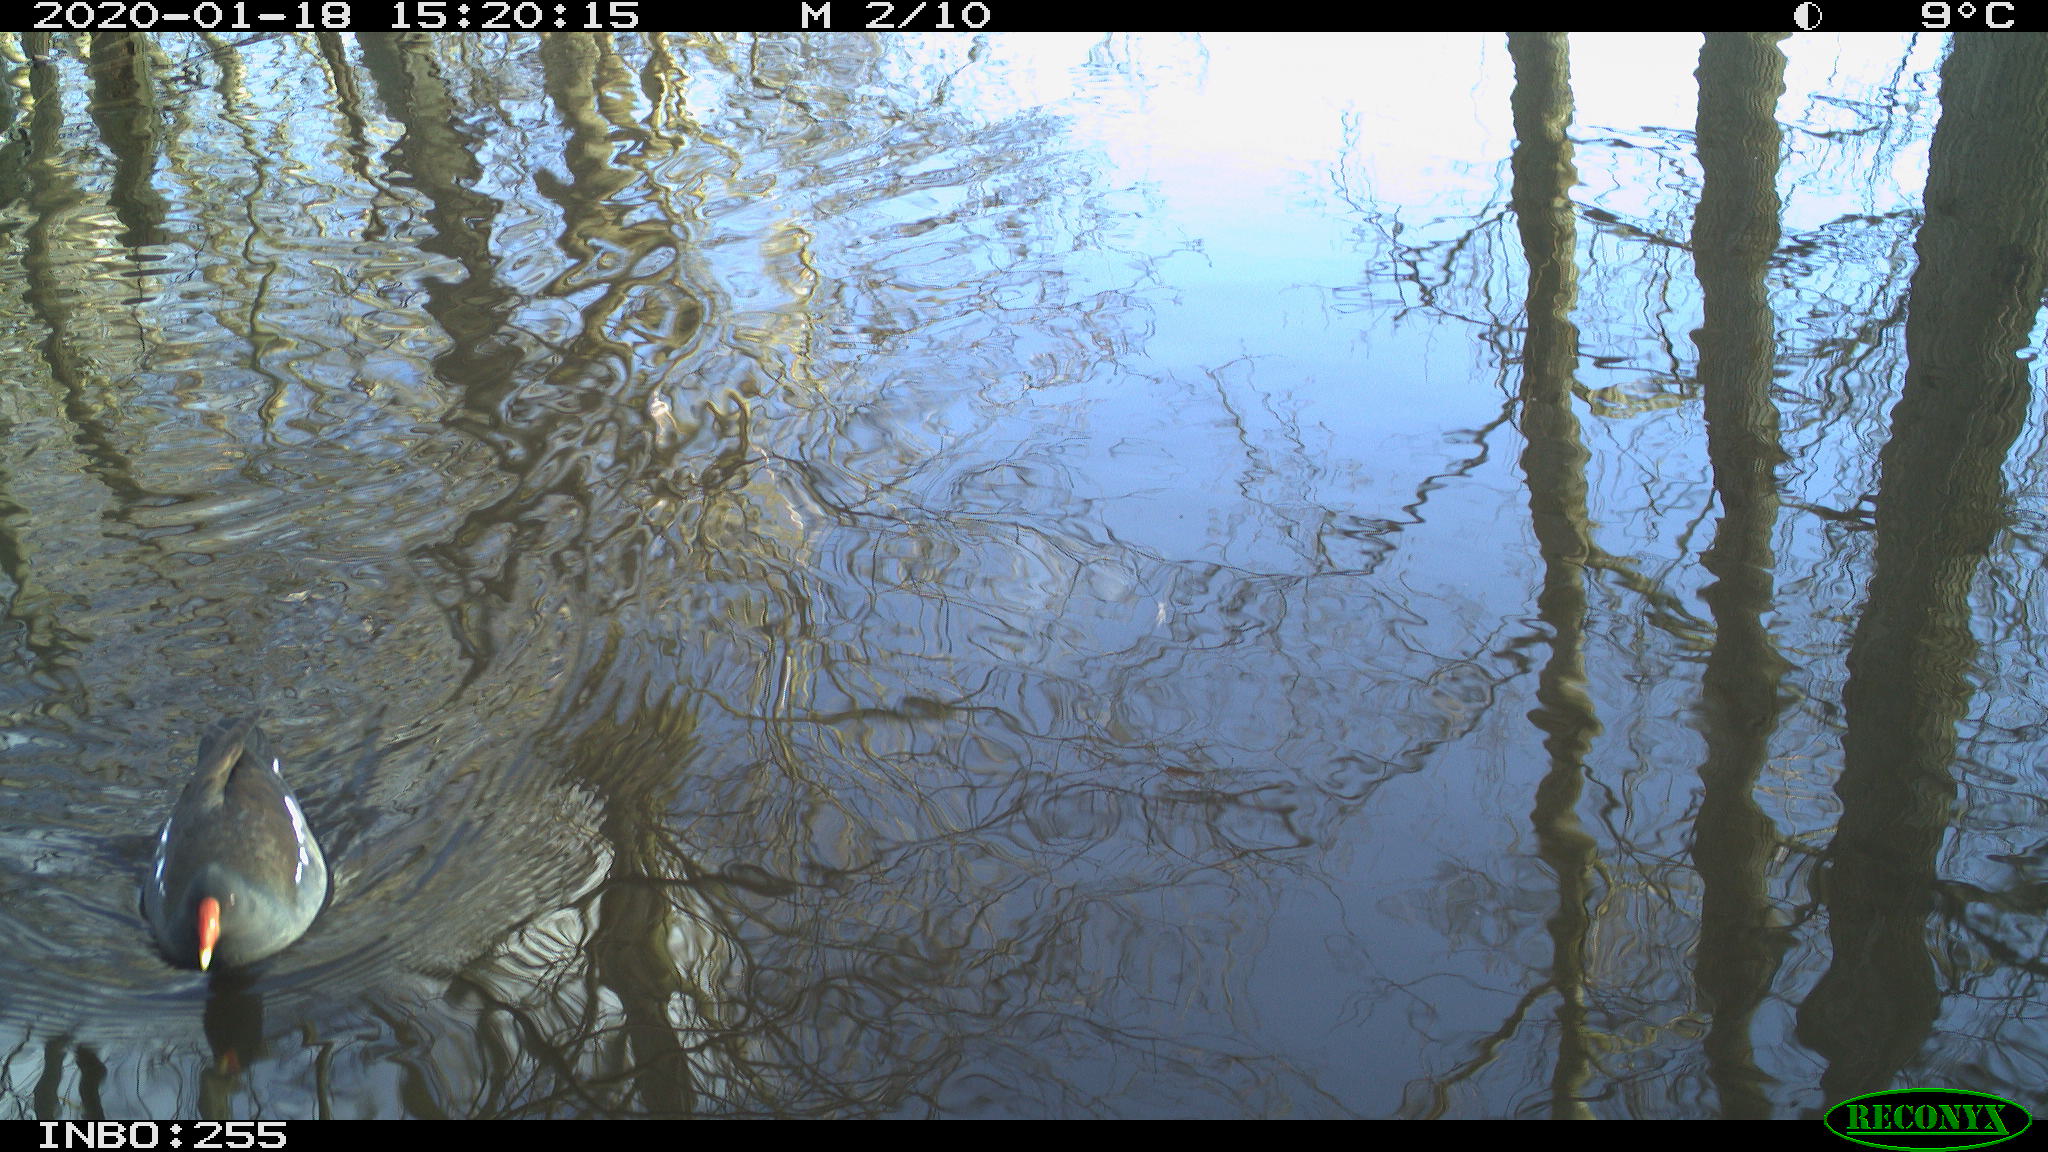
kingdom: Animalia
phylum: Chordata
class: Aves
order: Gruiformes
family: Rallidae
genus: Gallinula
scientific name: Gallinula chloropus
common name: Common moorhen
